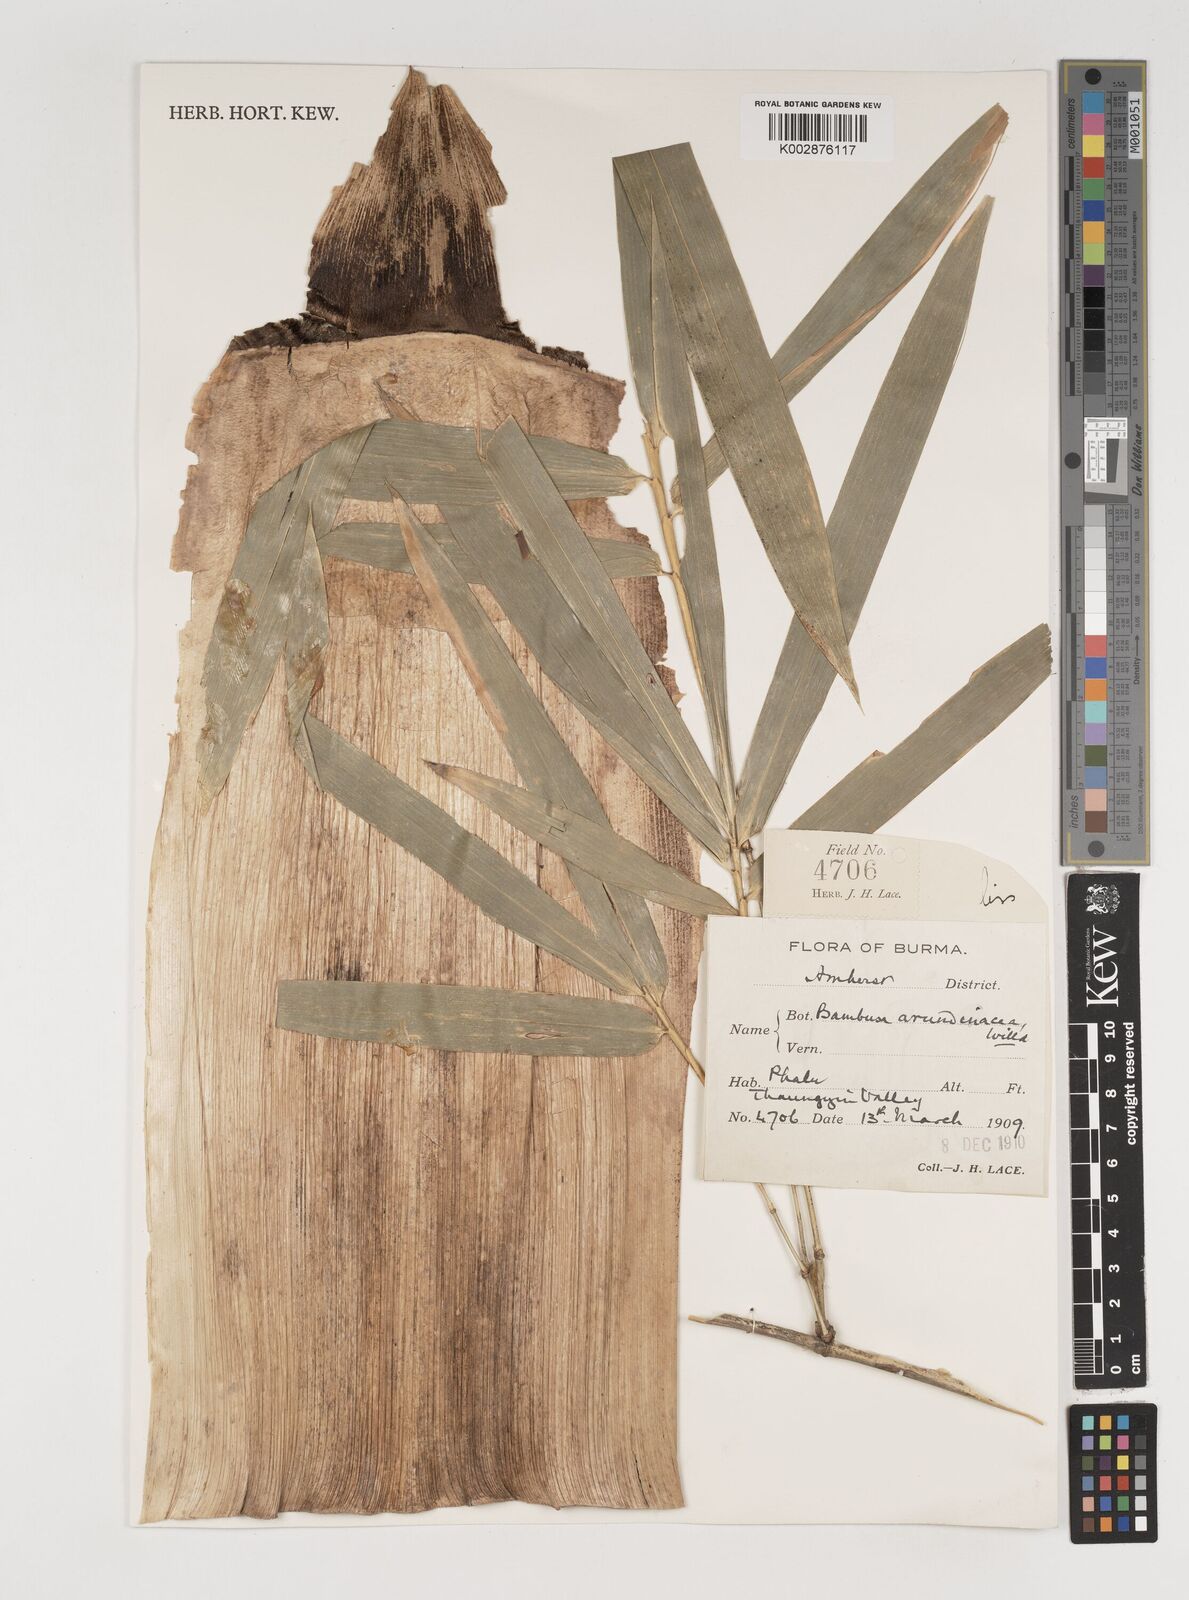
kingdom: Plantae
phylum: Tracheophyta
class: Liliopsida
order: Poales
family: Poaceae
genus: Bambusa
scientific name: Bambusa bambos
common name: Indian thorny bamboo
